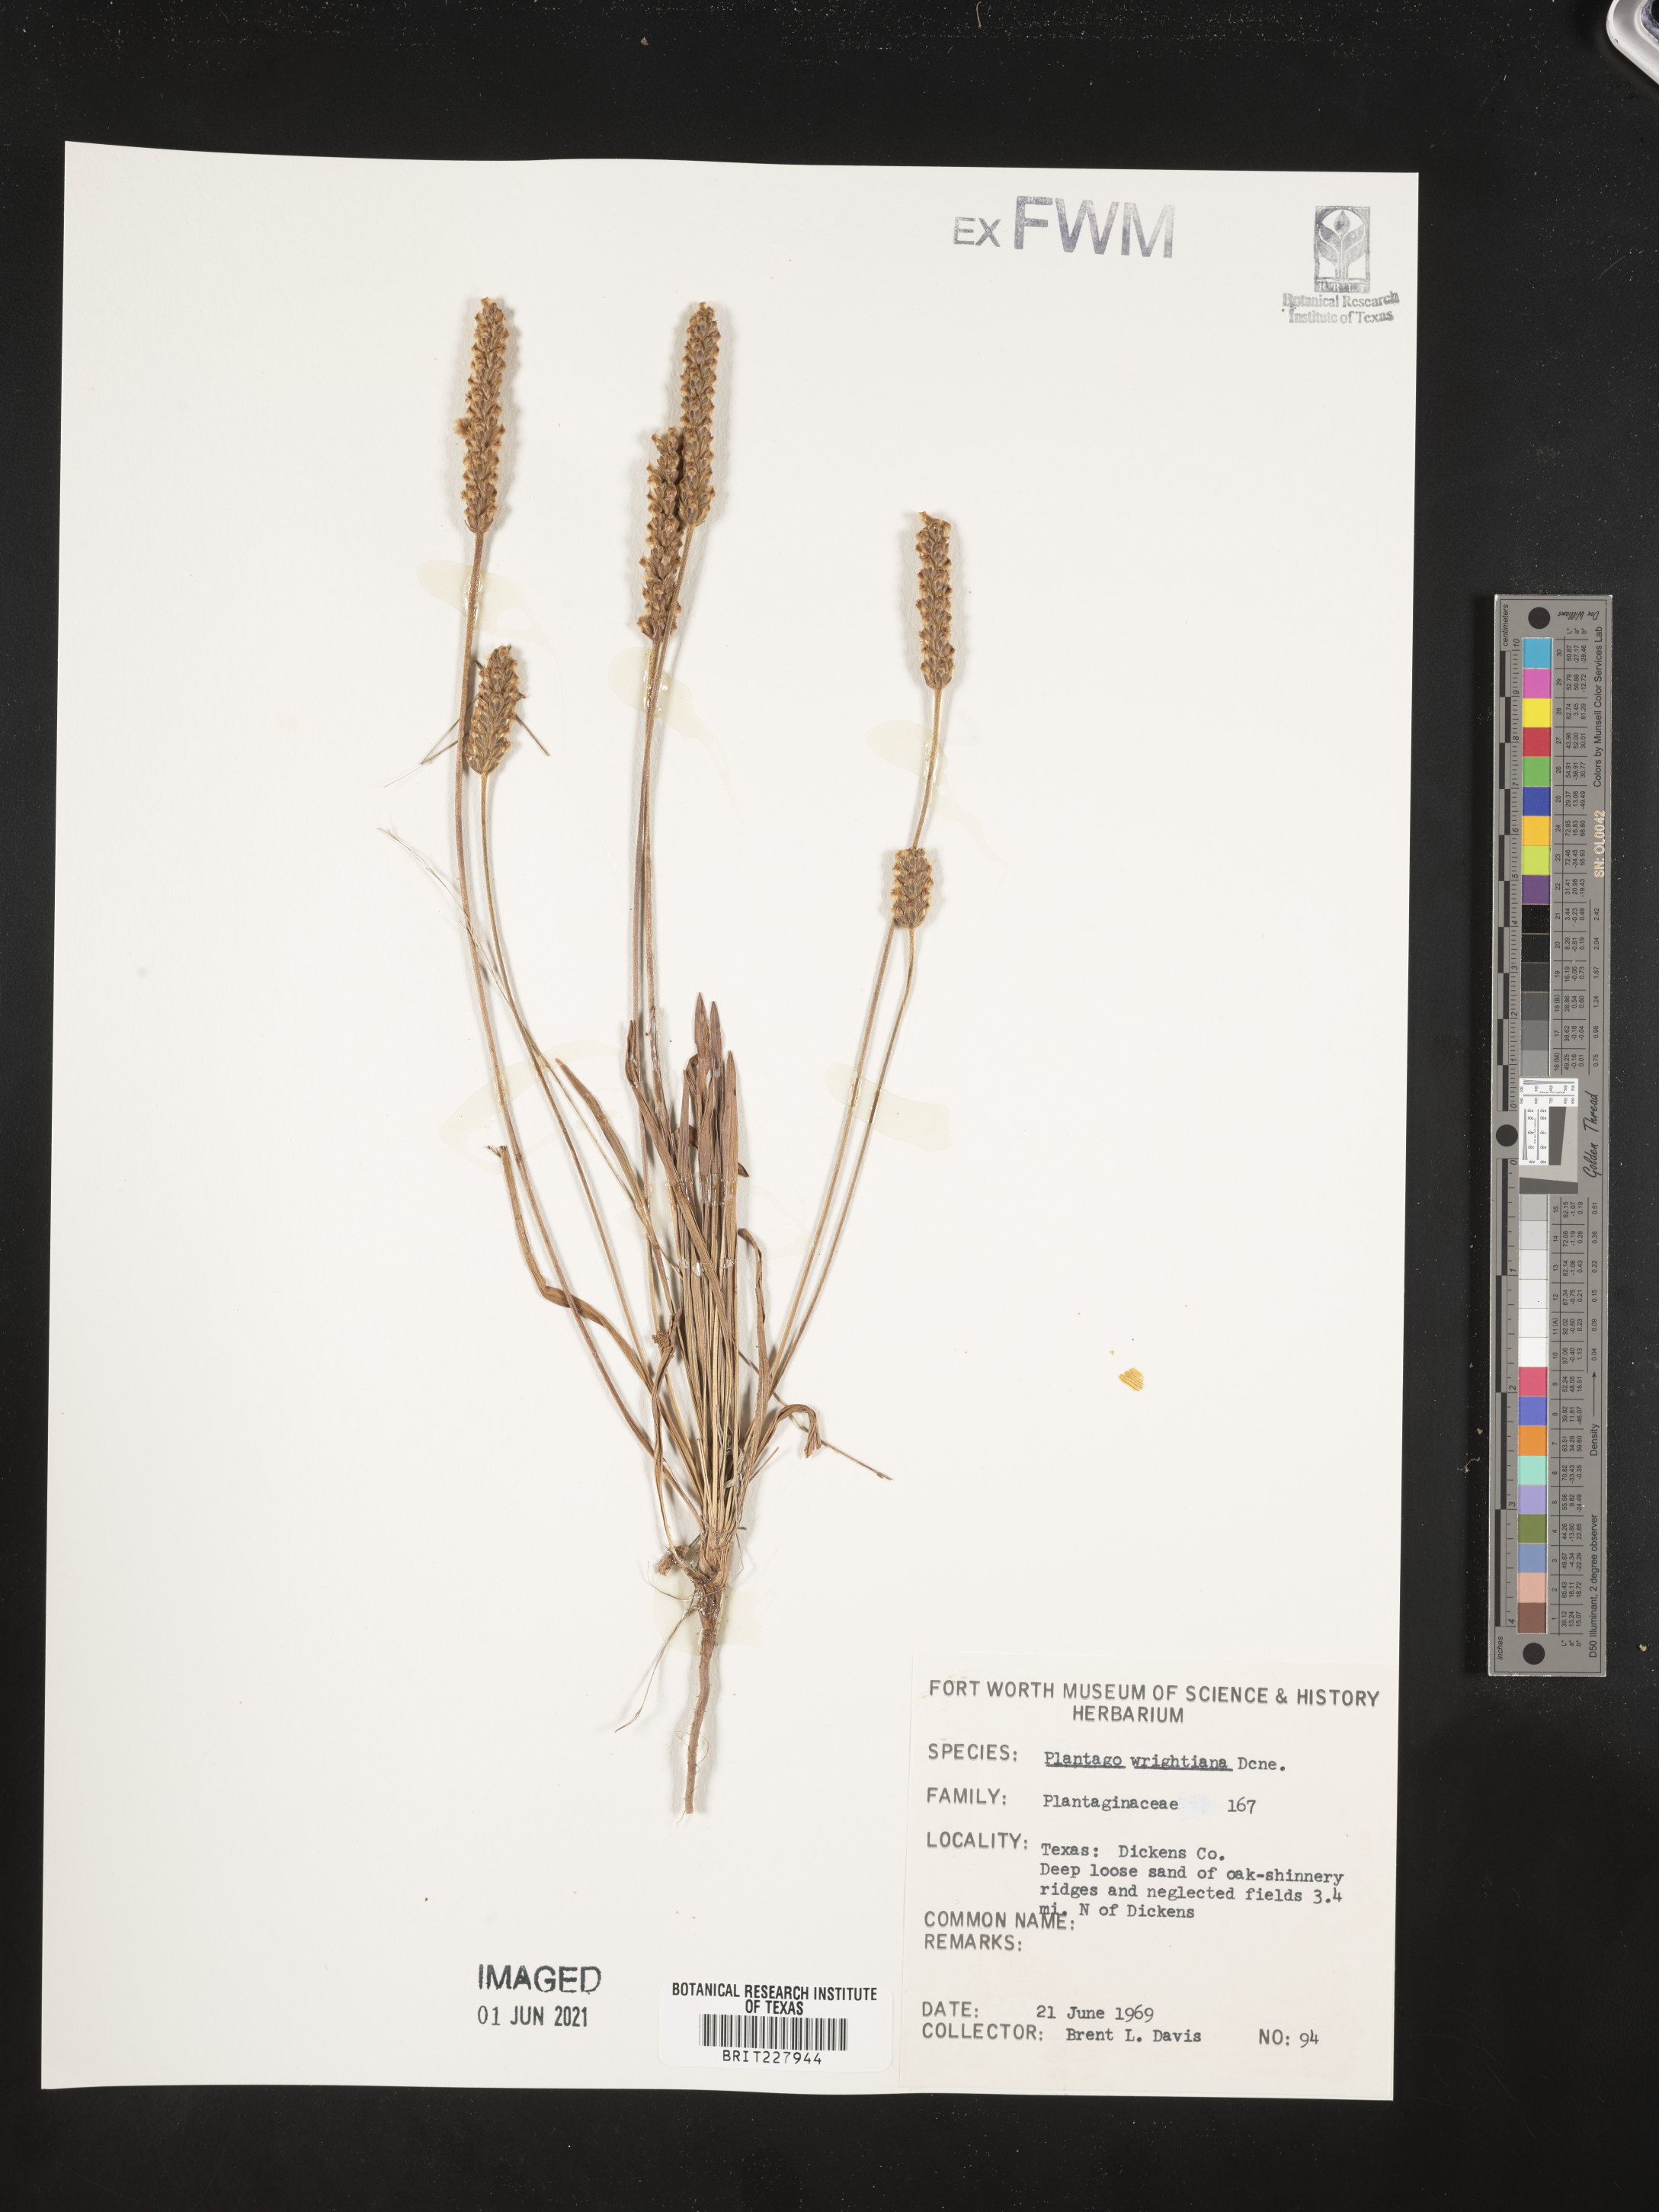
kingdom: Plantae
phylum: Tracheophyta
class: Magnoliopsida
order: Lamiales
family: Plantaginaceae
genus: Plantago
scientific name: Plantago wrightiana
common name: Wright's plantain
